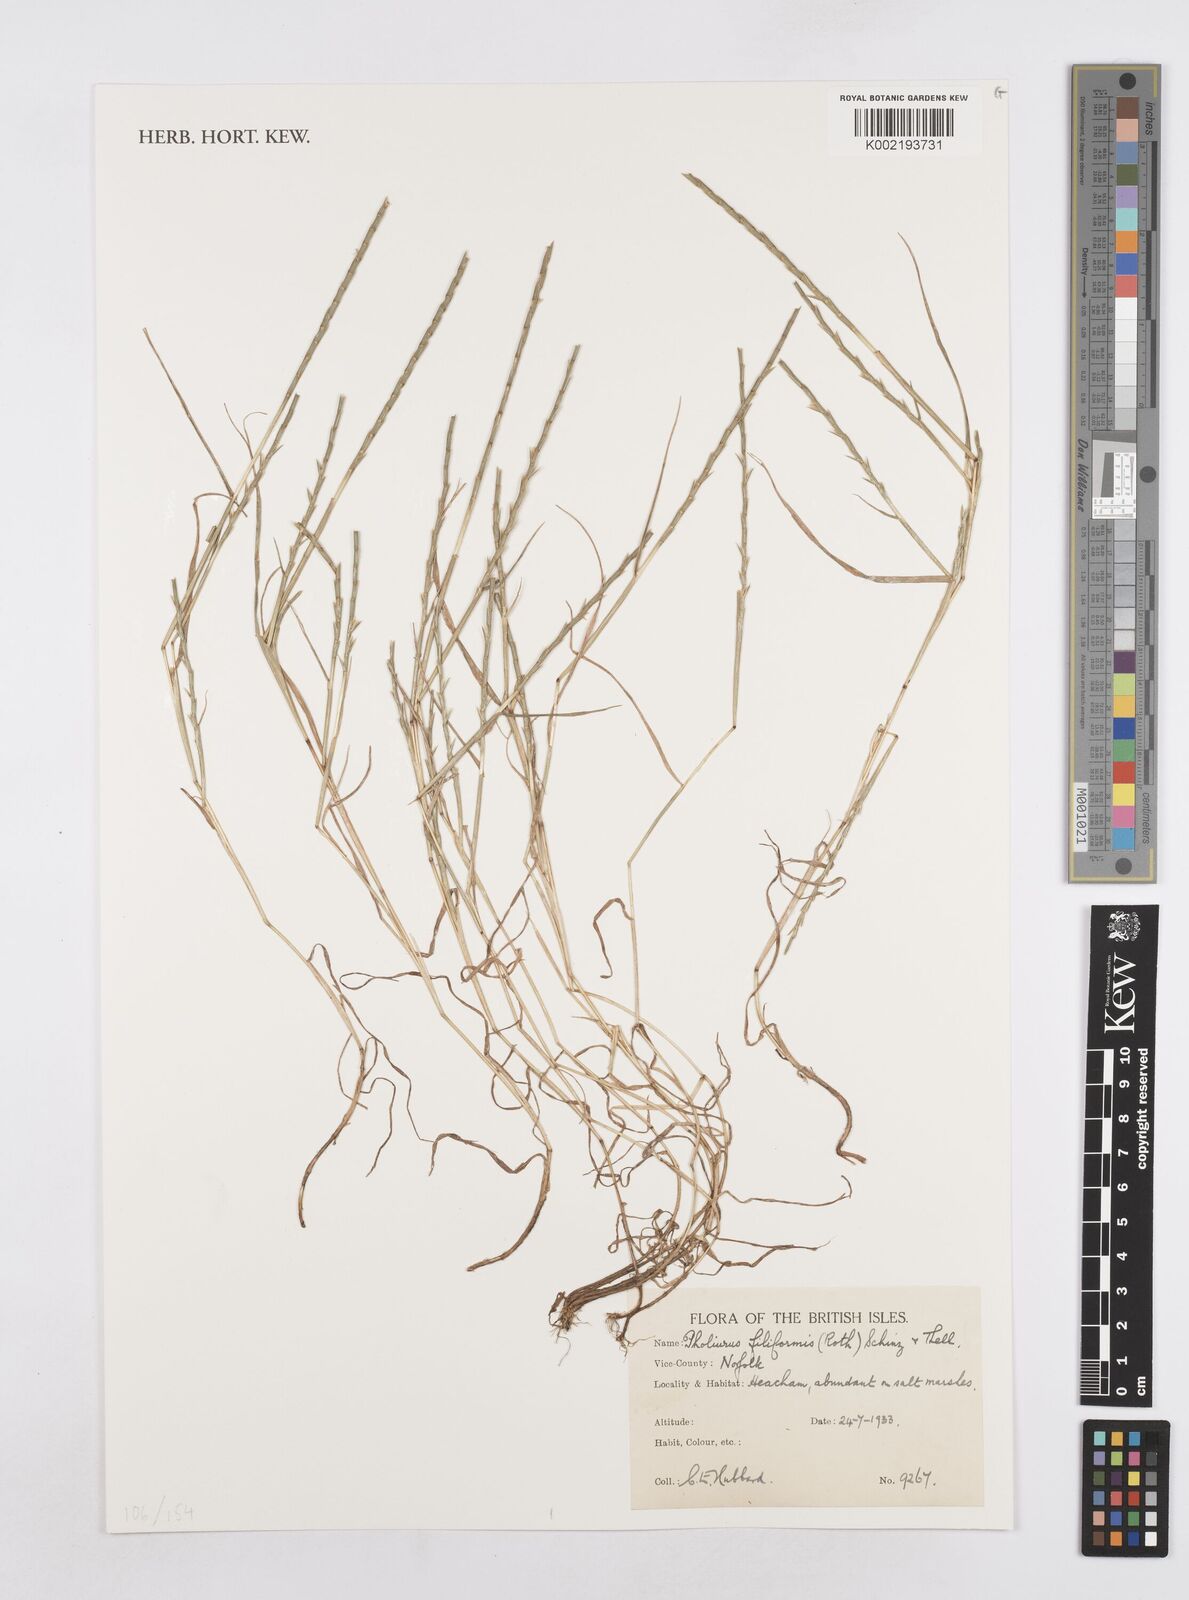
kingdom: Plantae
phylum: Tracheophyta
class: Liliopsida
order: Poales
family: Poaceae
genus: Parapholis
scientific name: Parapholis strigosa
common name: Hard-grass
